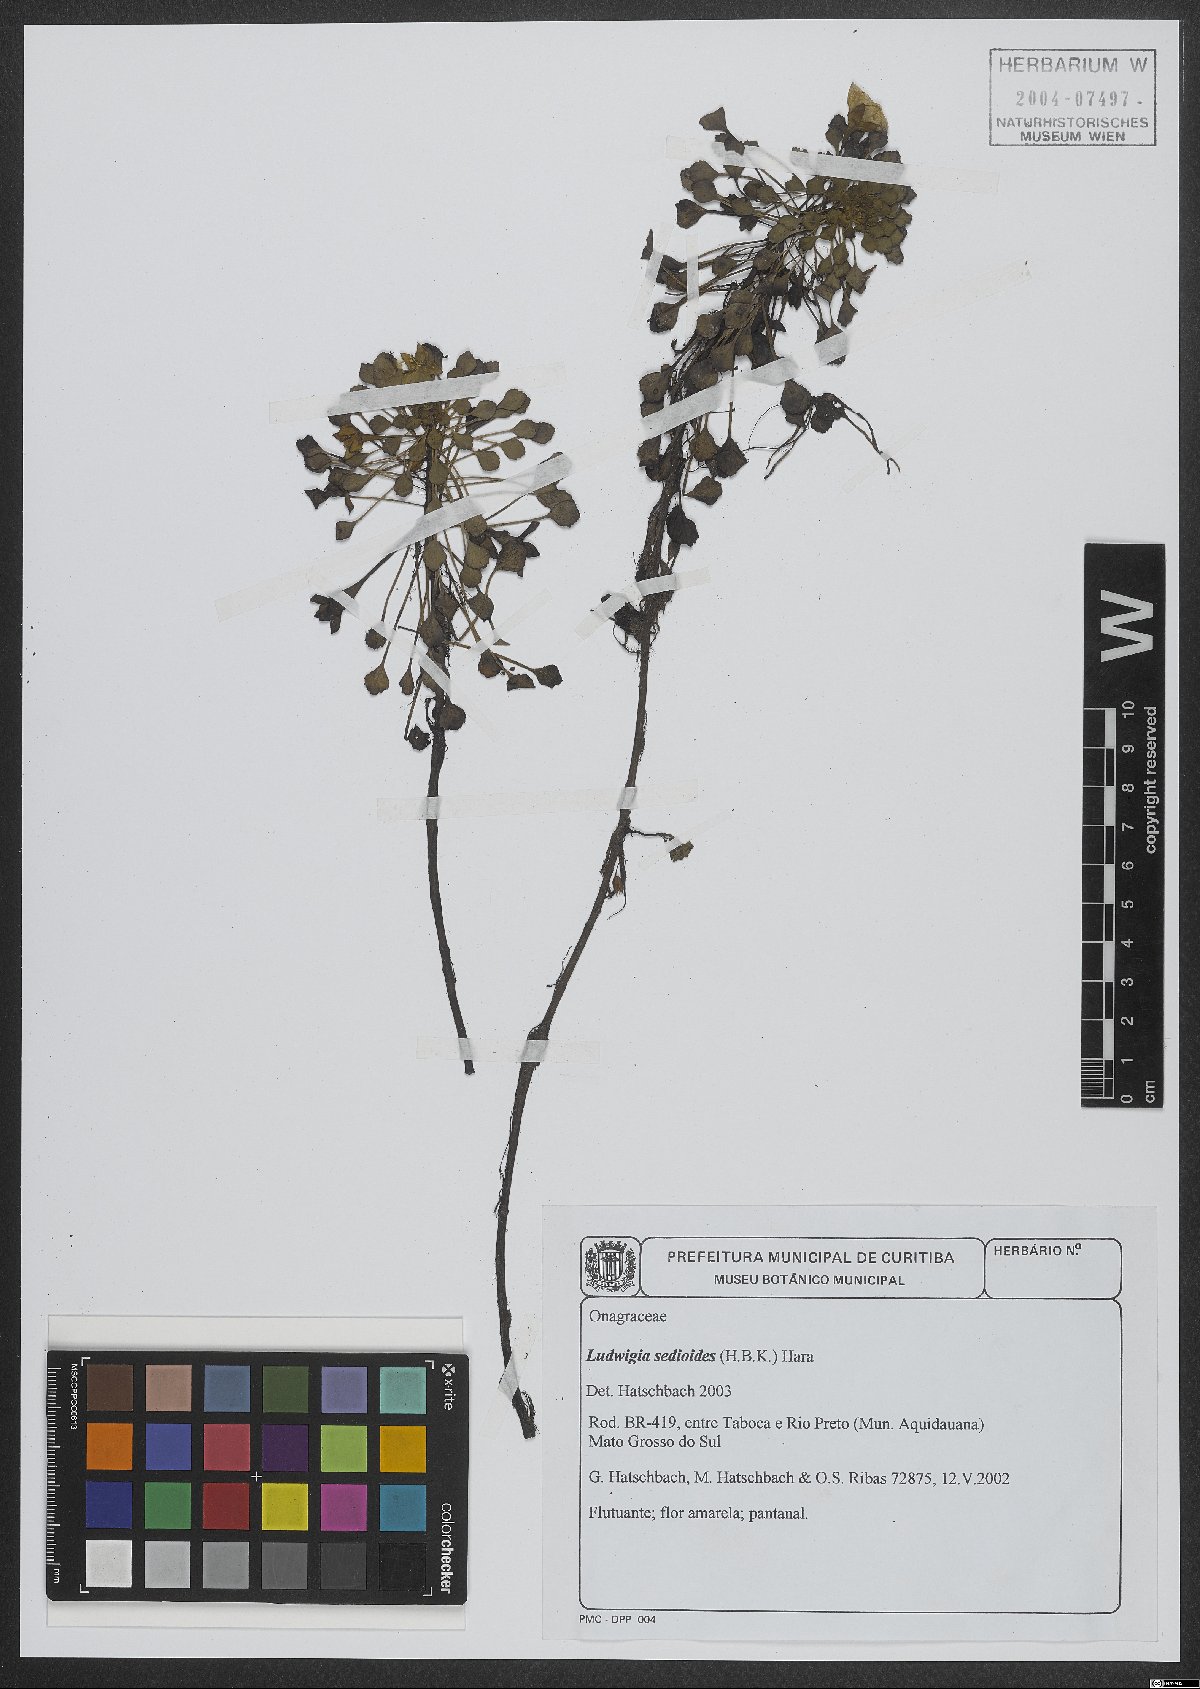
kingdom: Plantae
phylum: Tracheophyta
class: Magnoliopsida
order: Myrtales
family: Onagraceae
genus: Ludwigia
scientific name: Ludwigia sedoides
